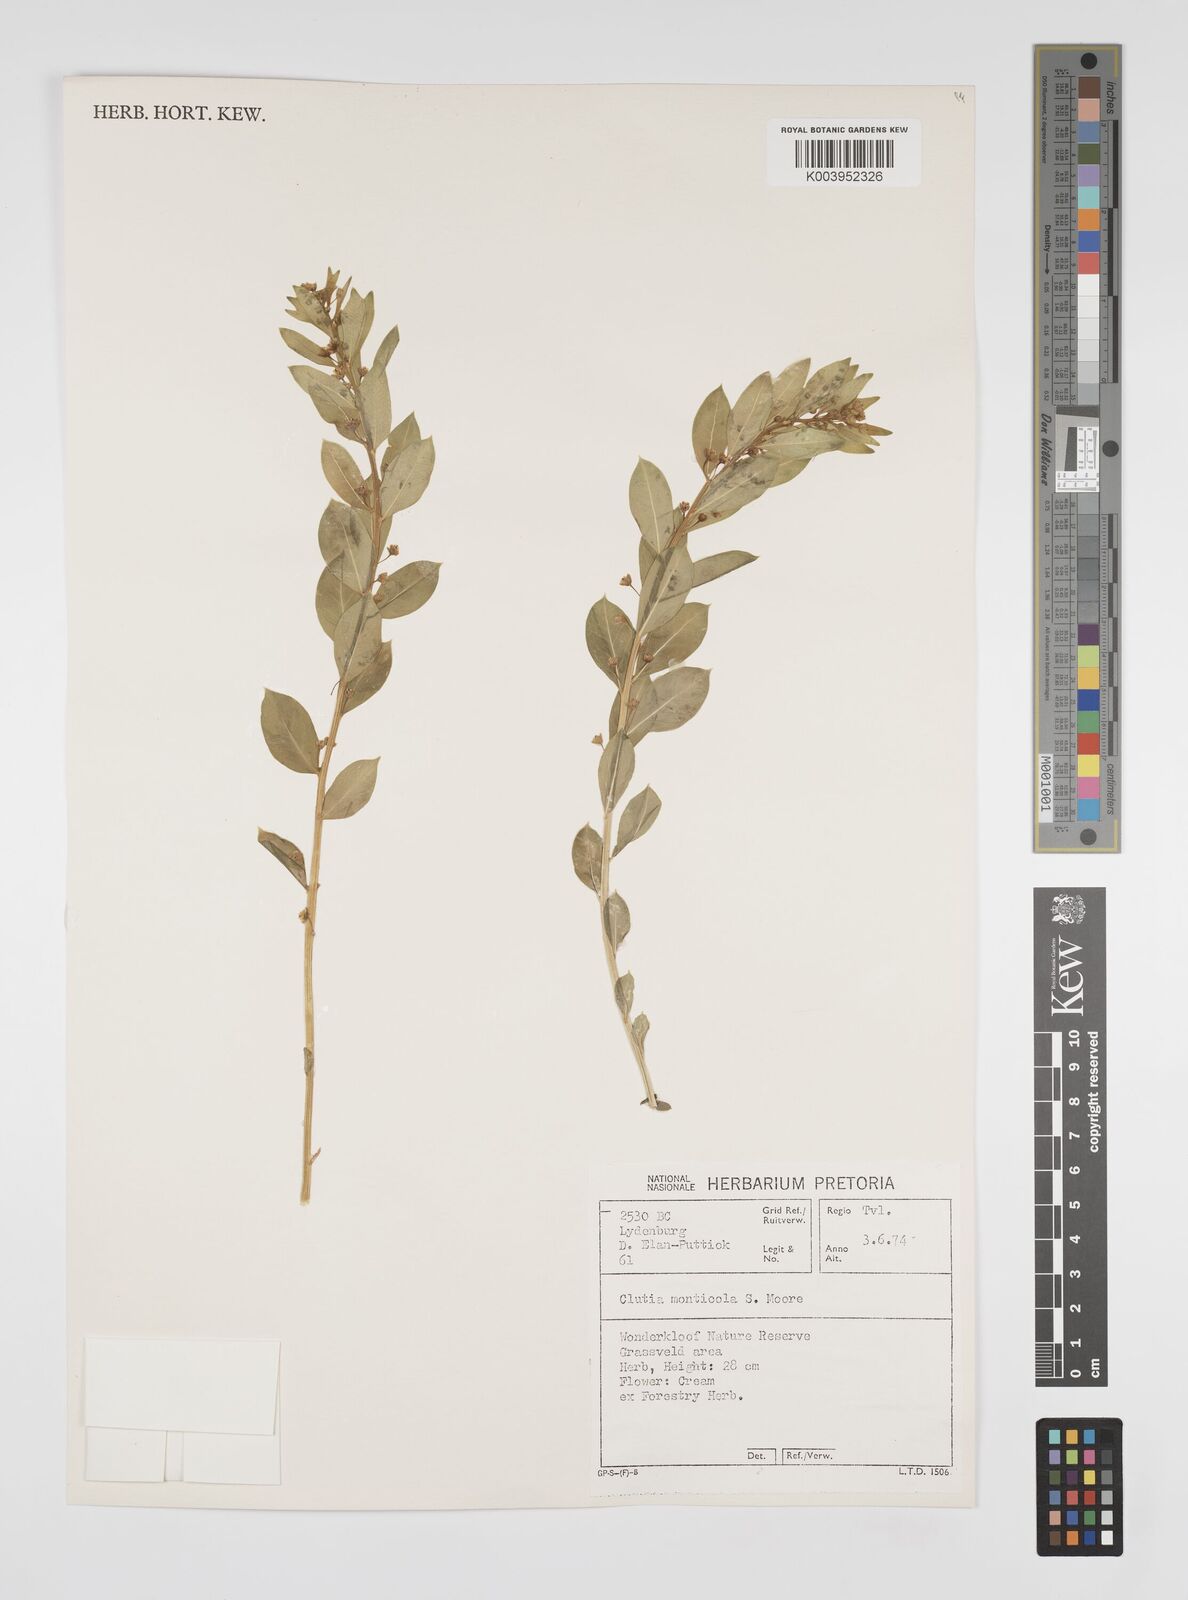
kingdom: Plantae
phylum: Tracheophyta
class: Magnoliopsida
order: Malpighiales
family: Peraceae
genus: Clutia
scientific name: Clutia monticola
